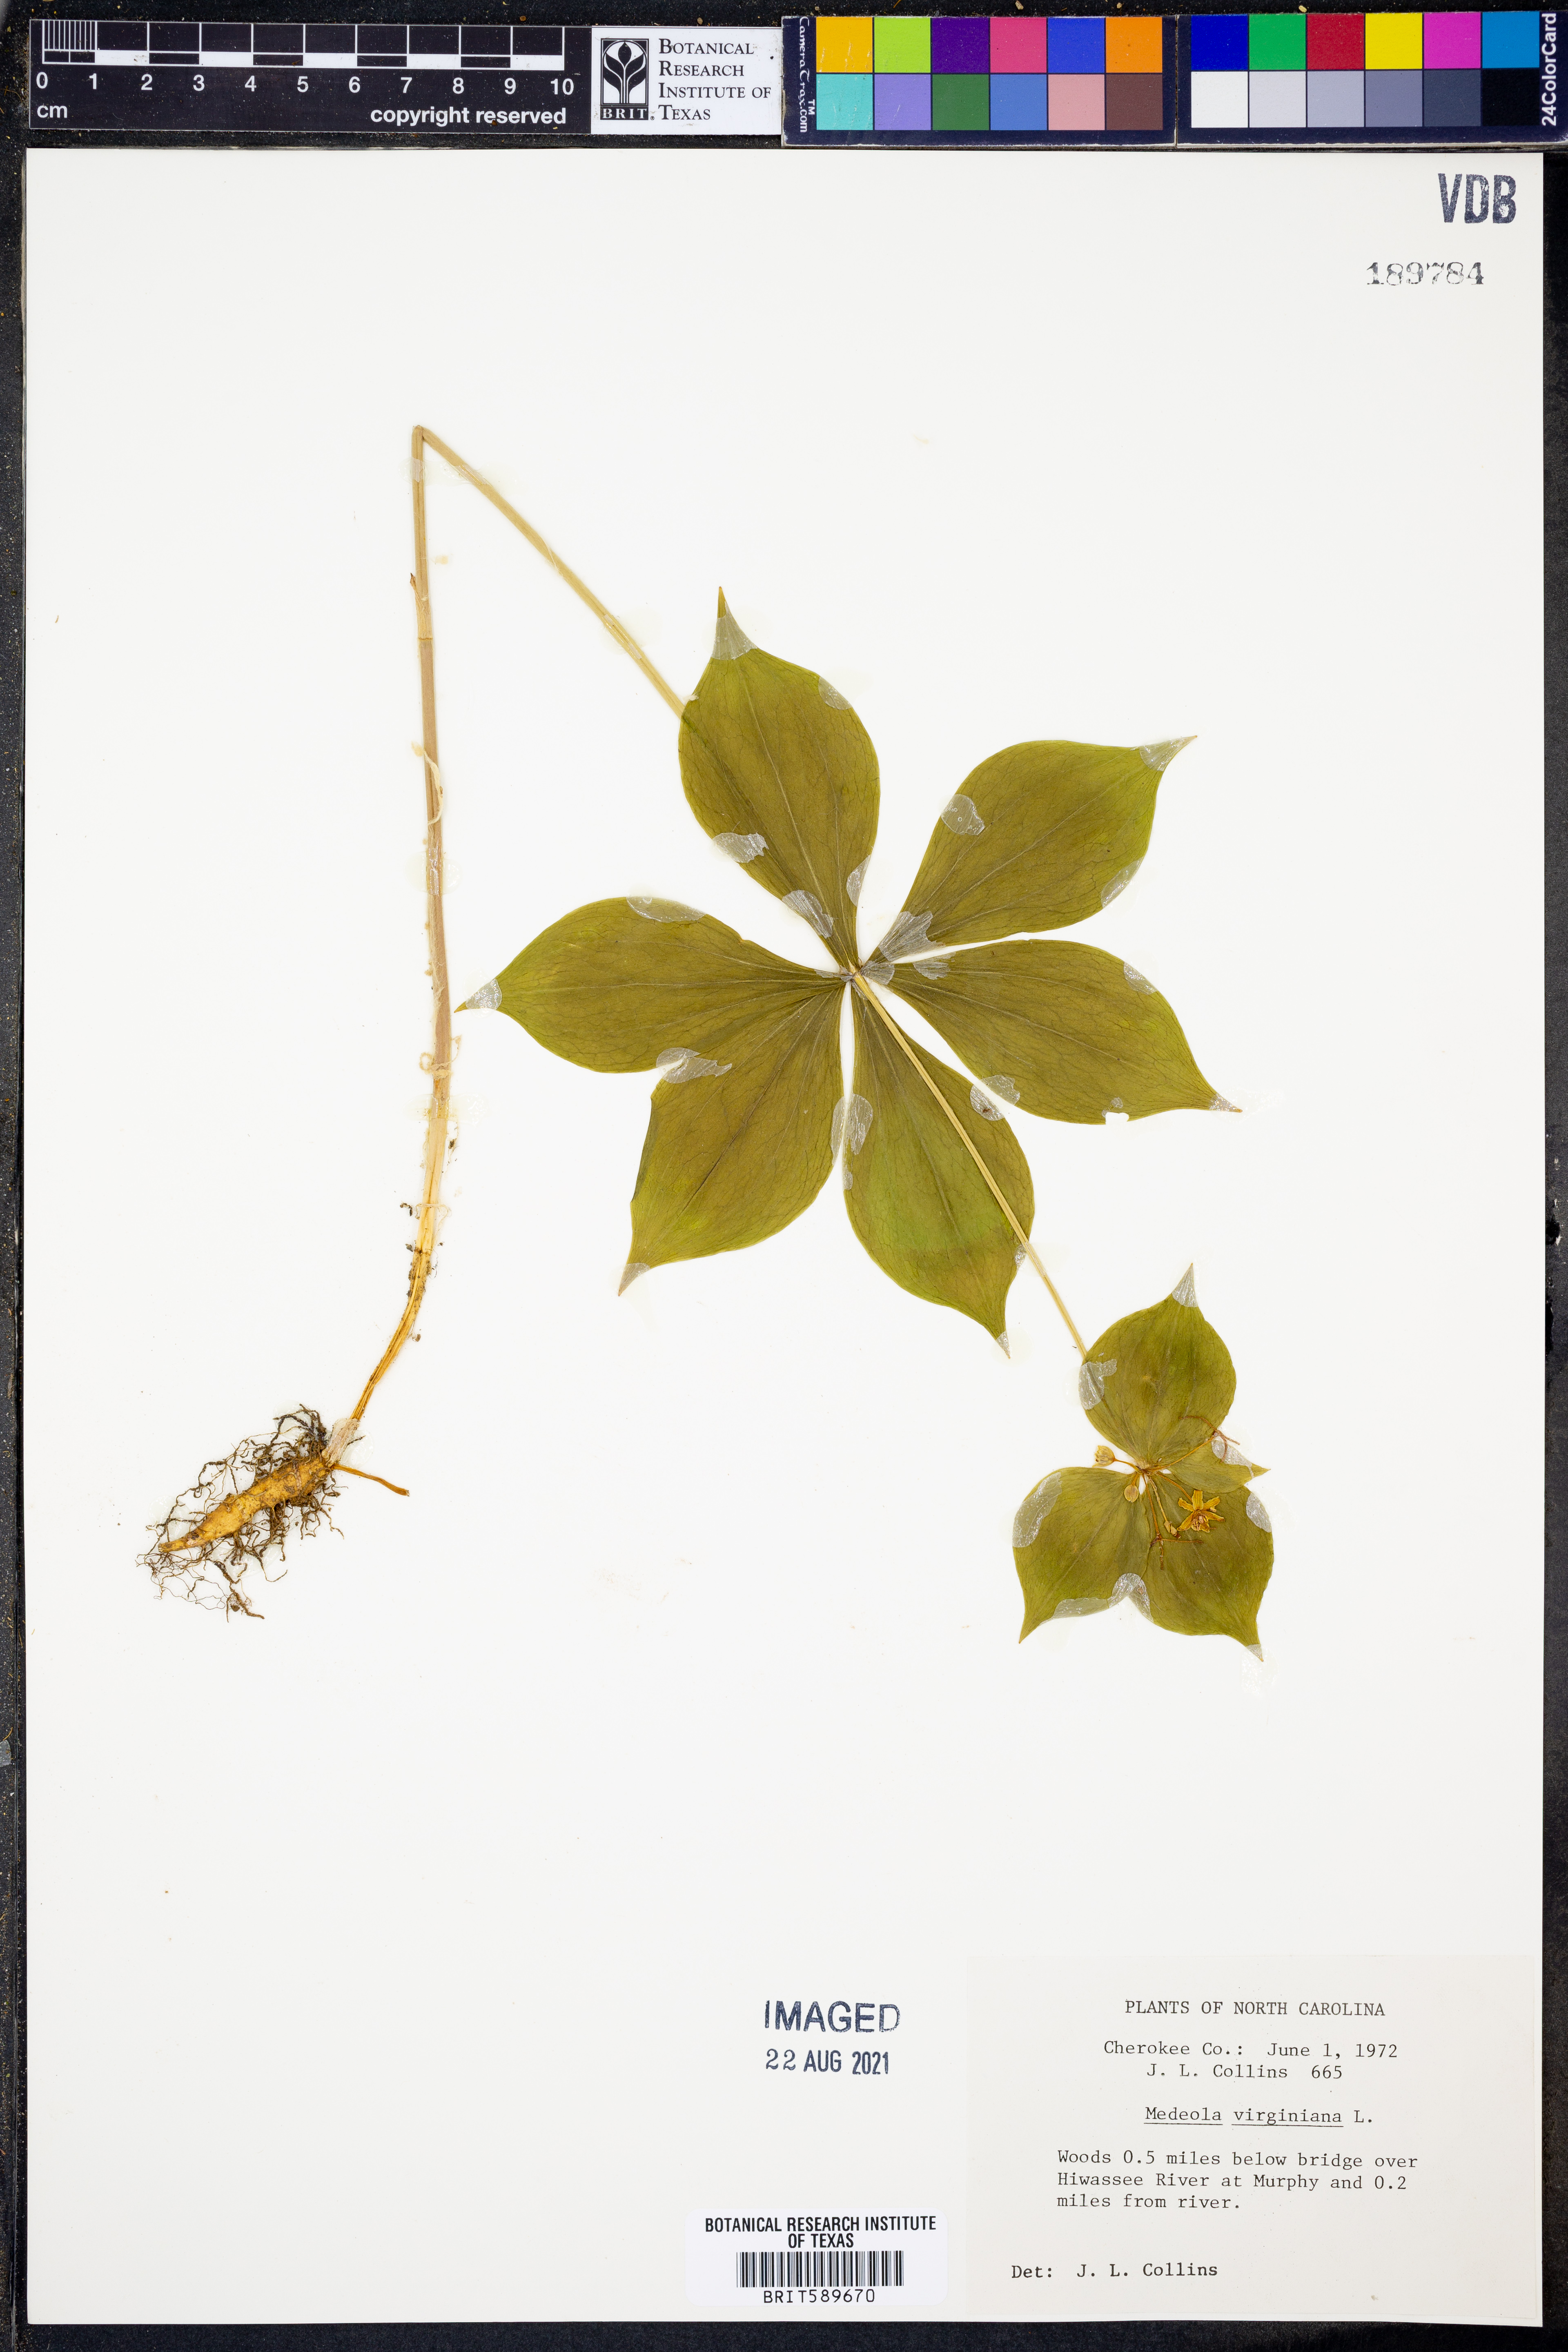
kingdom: Plantae
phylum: Tracheophyta
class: Liliopsida
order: Liliales
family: Liliaceae
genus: Medeola
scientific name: Medeola virginiana
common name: Indian cucumber-root
